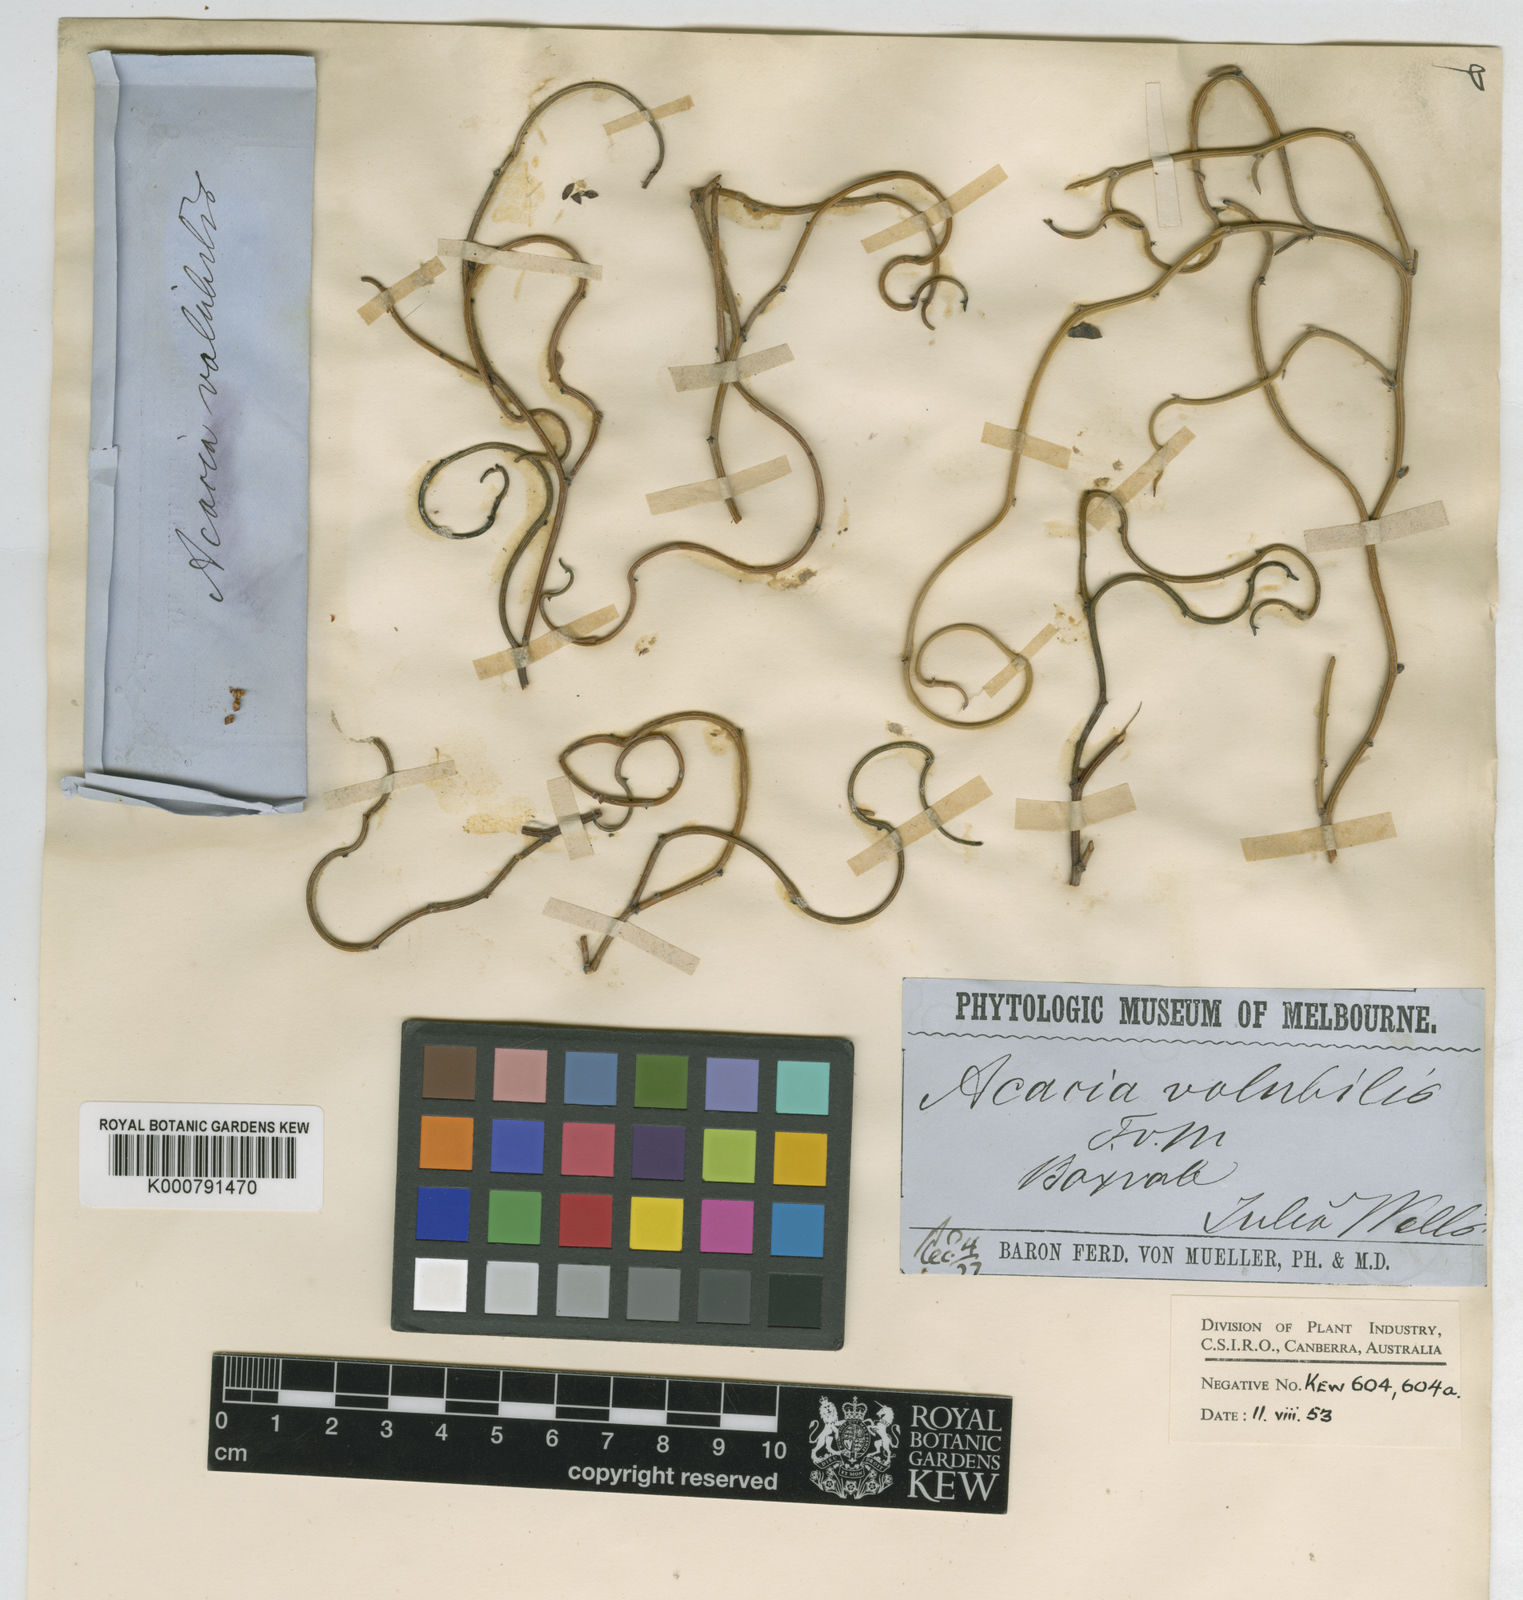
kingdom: Plantae
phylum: Tracheophyta
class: Magnoliopsida
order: Fabales
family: Fabaceae
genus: Acacia
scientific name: Acacia volubilis
